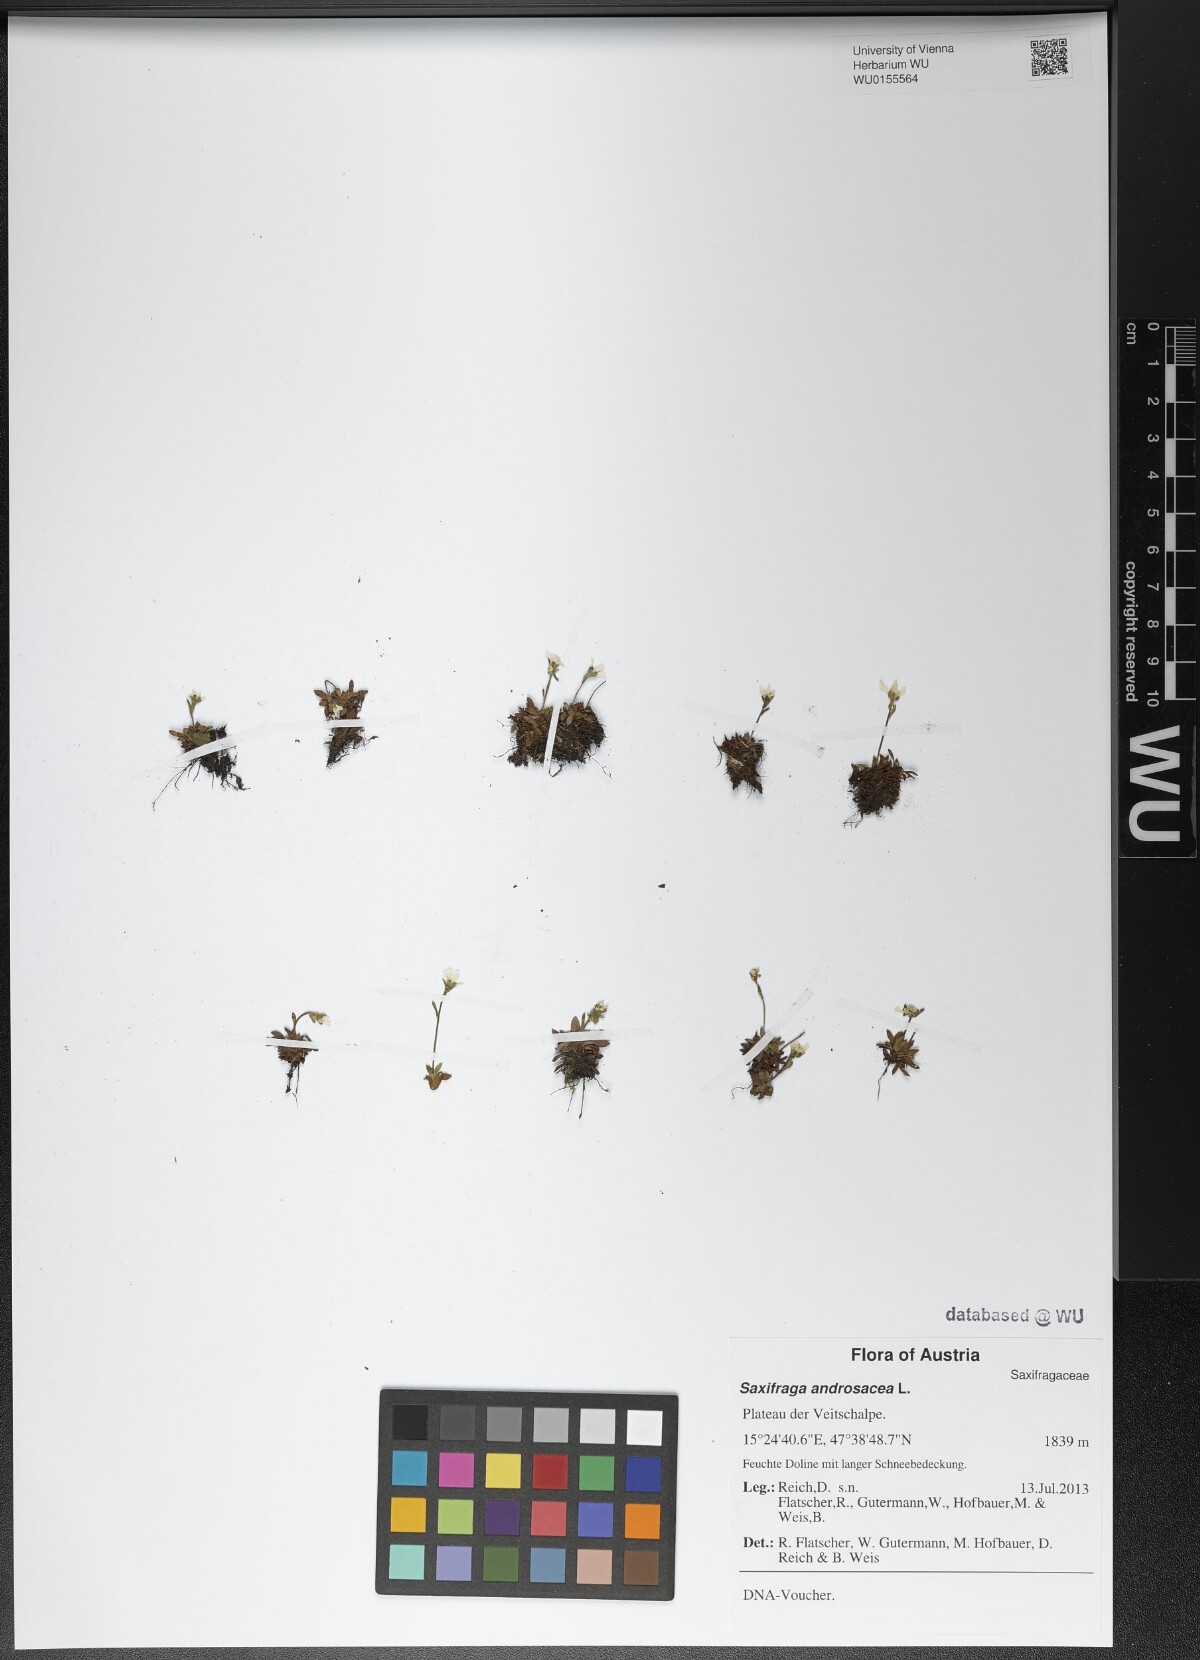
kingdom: Plantae
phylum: Tracheophyta
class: Magnoliopsida
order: Saxifragales
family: Saxifragaceae
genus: Saxifraga
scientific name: Saxifraga androsacea
